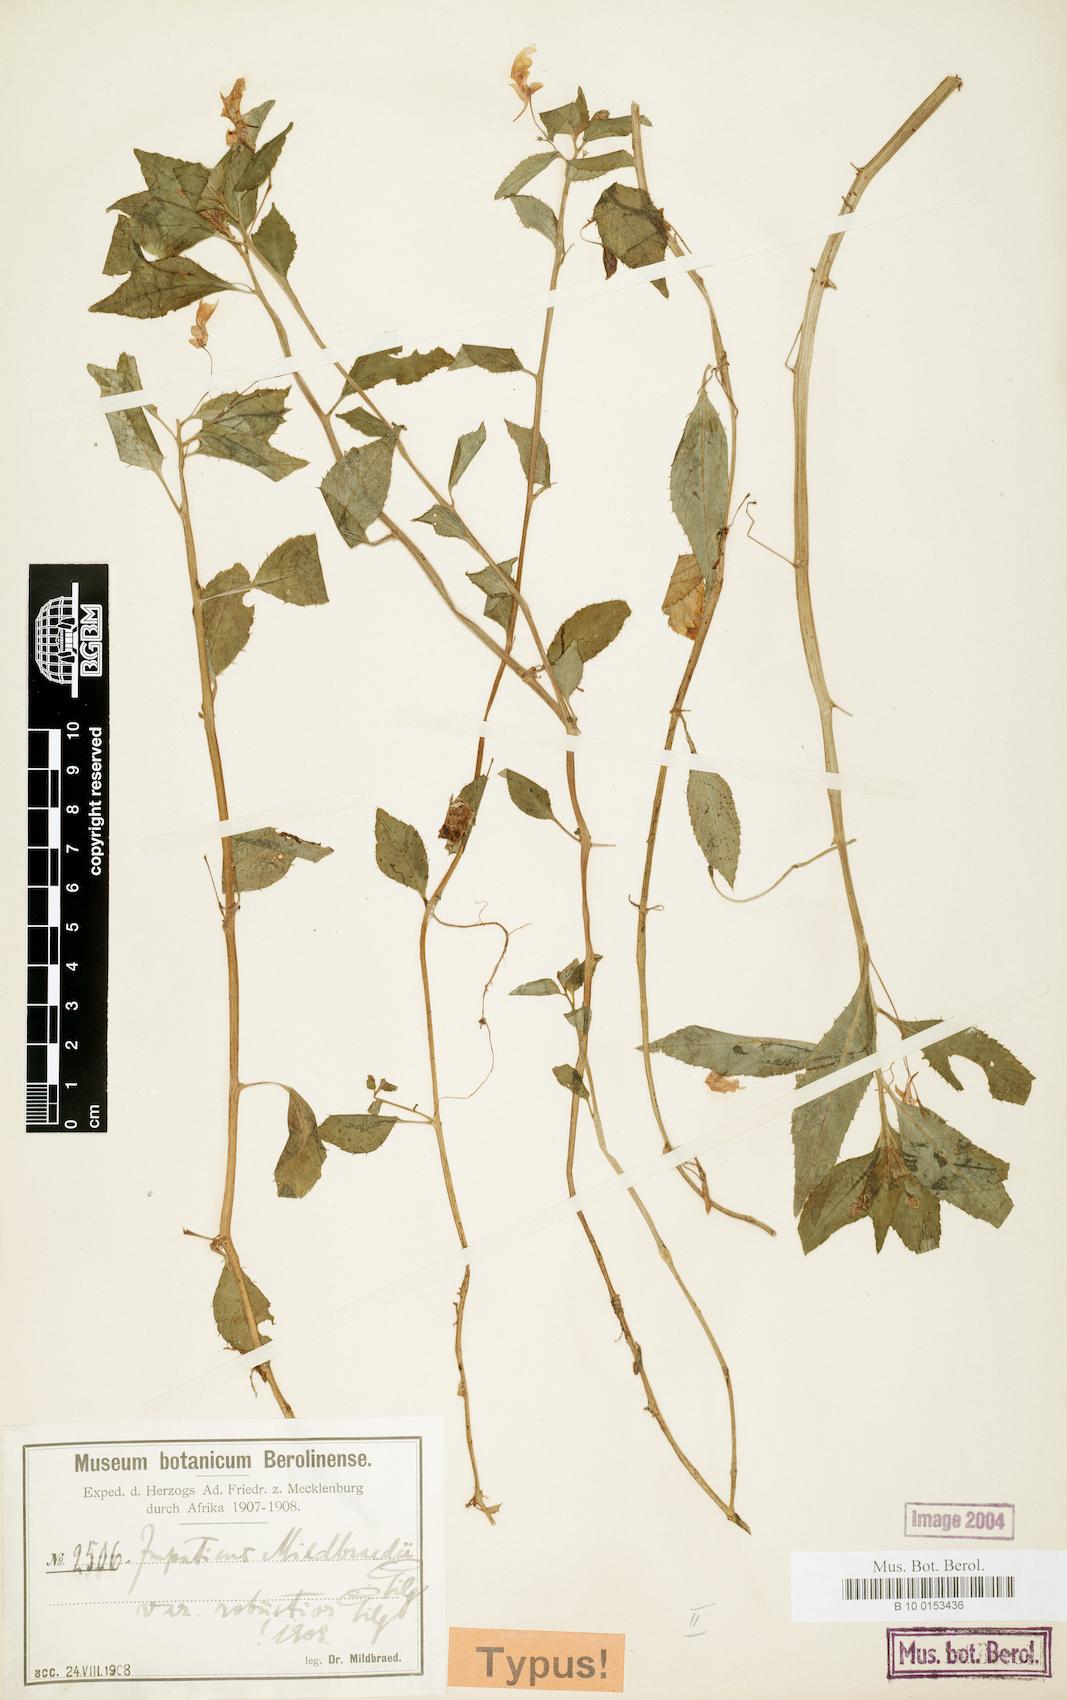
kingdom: Plantae
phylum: Tracheophyta
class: Magnoliopsida
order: Ericales
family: Balsaminaceae
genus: Impatiens
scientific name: Impatiens mildbraedii
